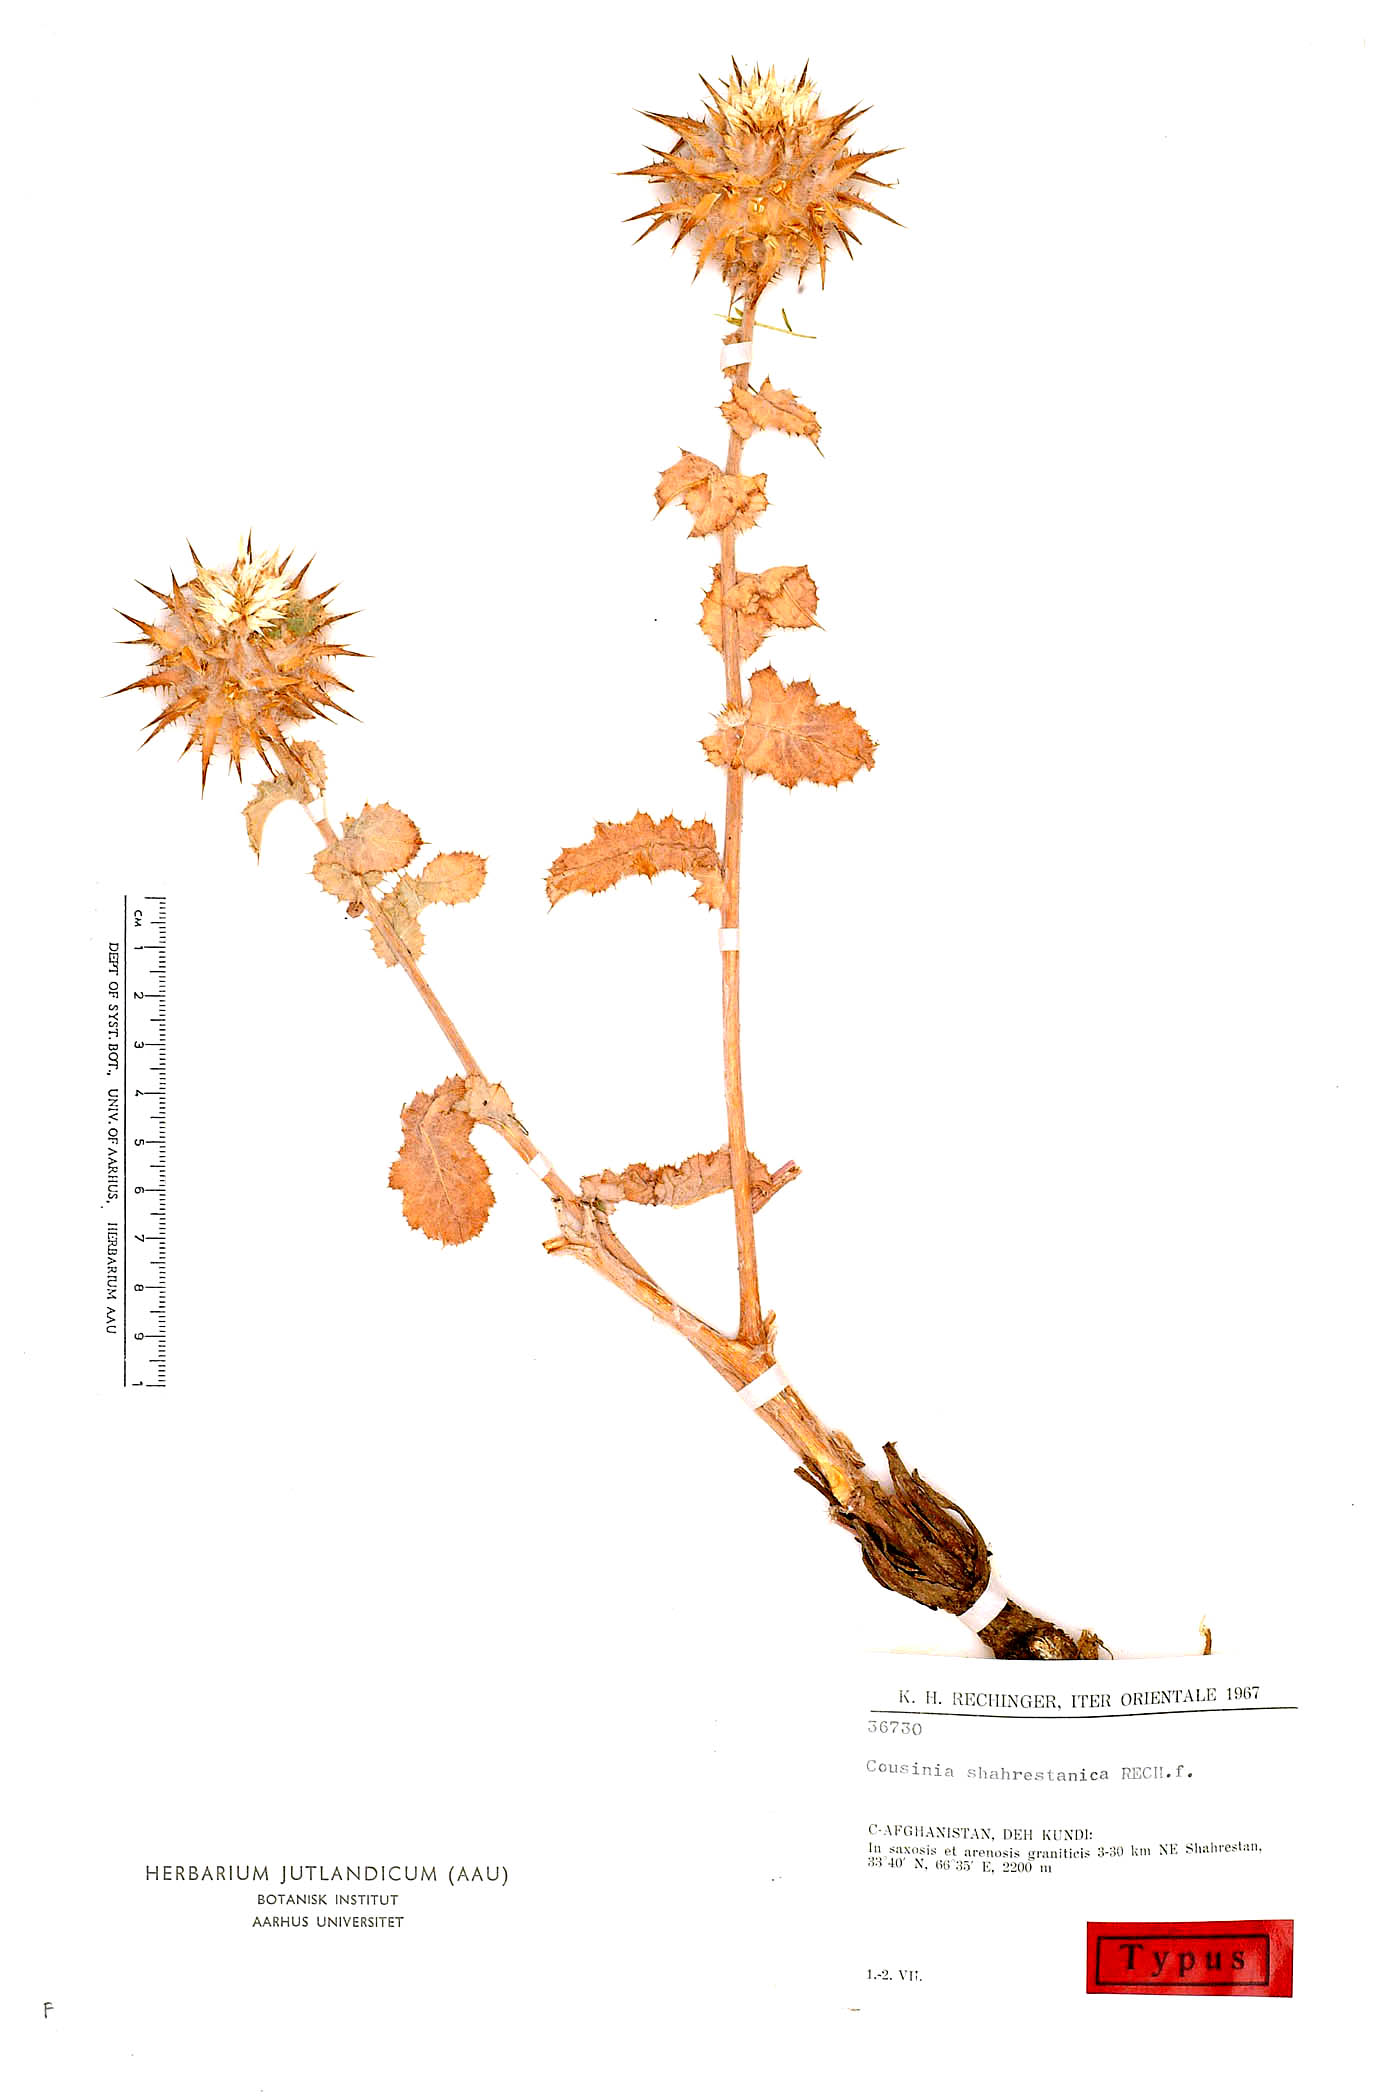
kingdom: Plantae
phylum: Tracheophyta
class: Magnoliopsida
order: Asterales
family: Asteraceae
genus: Cousinia
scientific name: Cousinia shahrestanica
